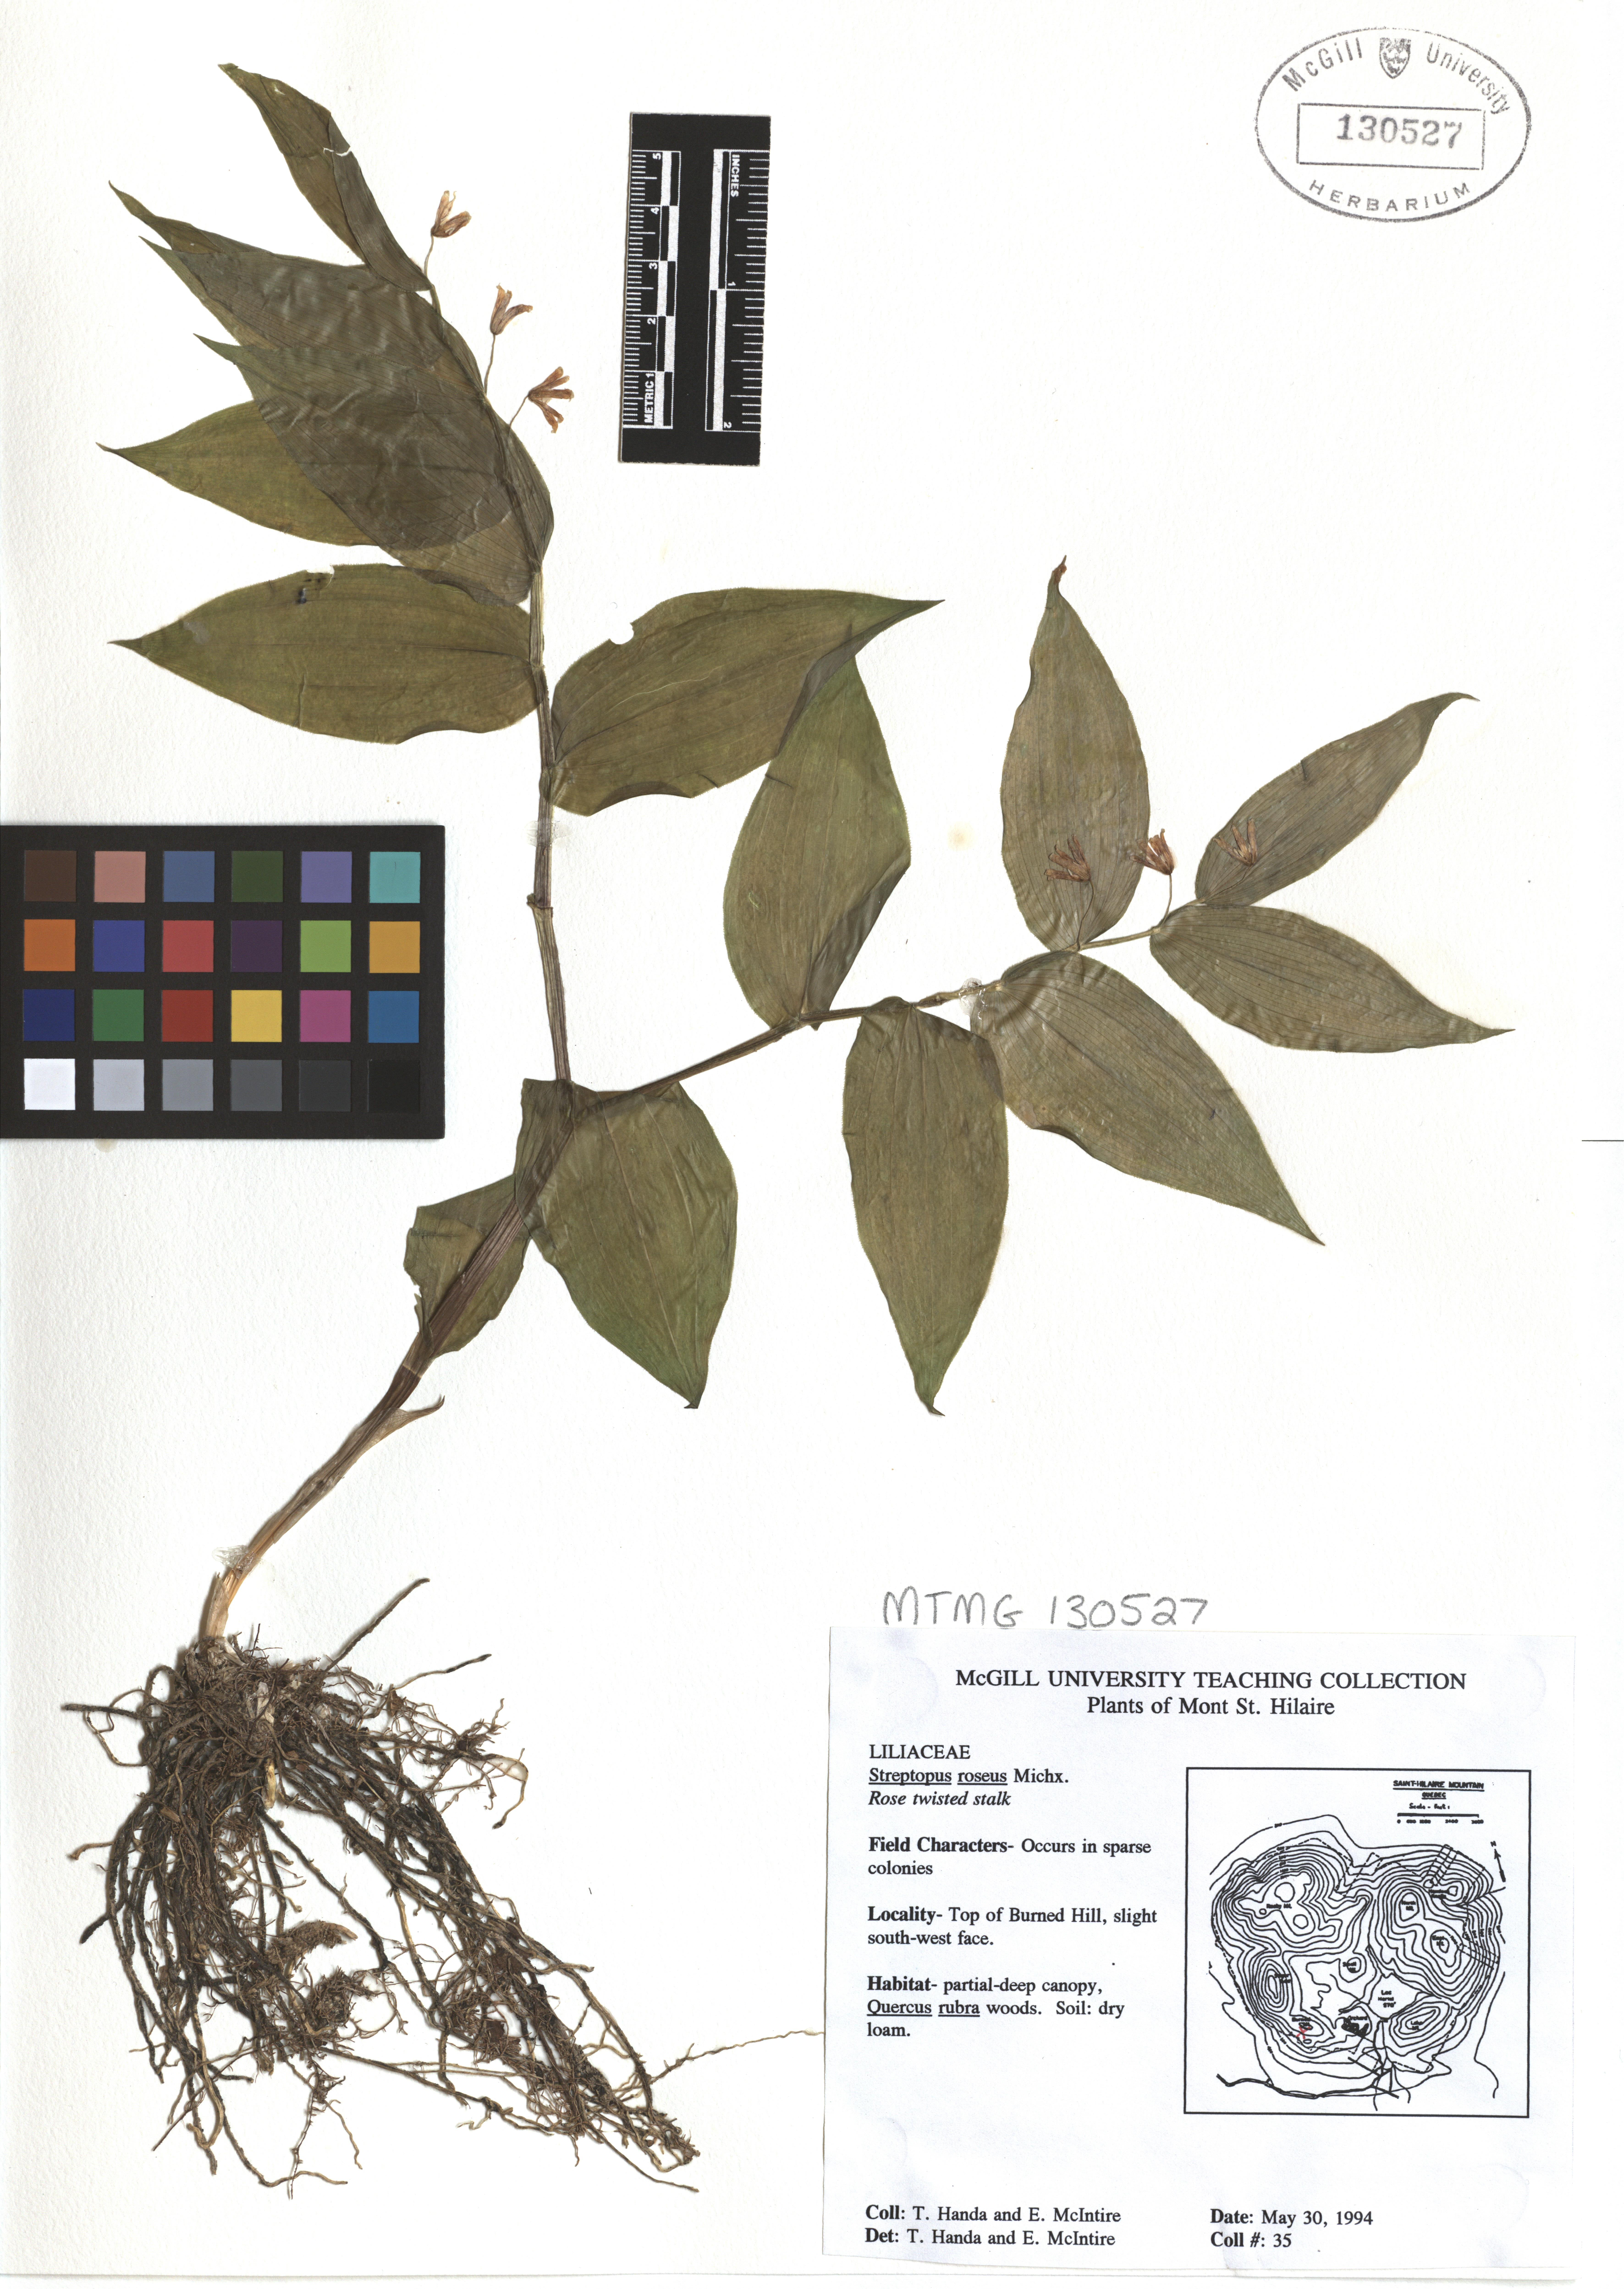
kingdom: Plantae
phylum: Tracheophyta
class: Liliopsida
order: Liliales
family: Liliaceae
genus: Streptopus
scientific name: Streptopus lanceolatus
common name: Rose mandarin
